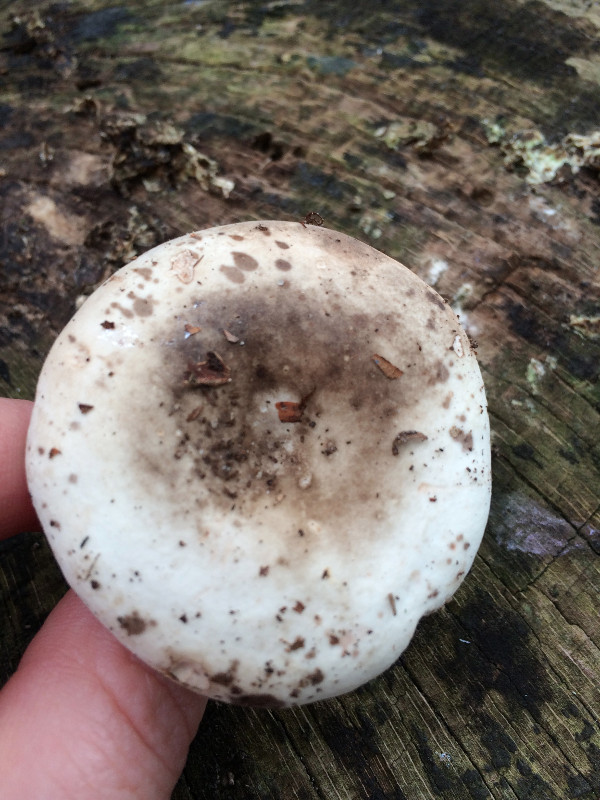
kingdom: Fungi
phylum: Basidiomycota
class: Agaricomycetes
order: Russulales
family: Russulaceae
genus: Russula
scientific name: Russula adusta
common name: sværtende skørhat
